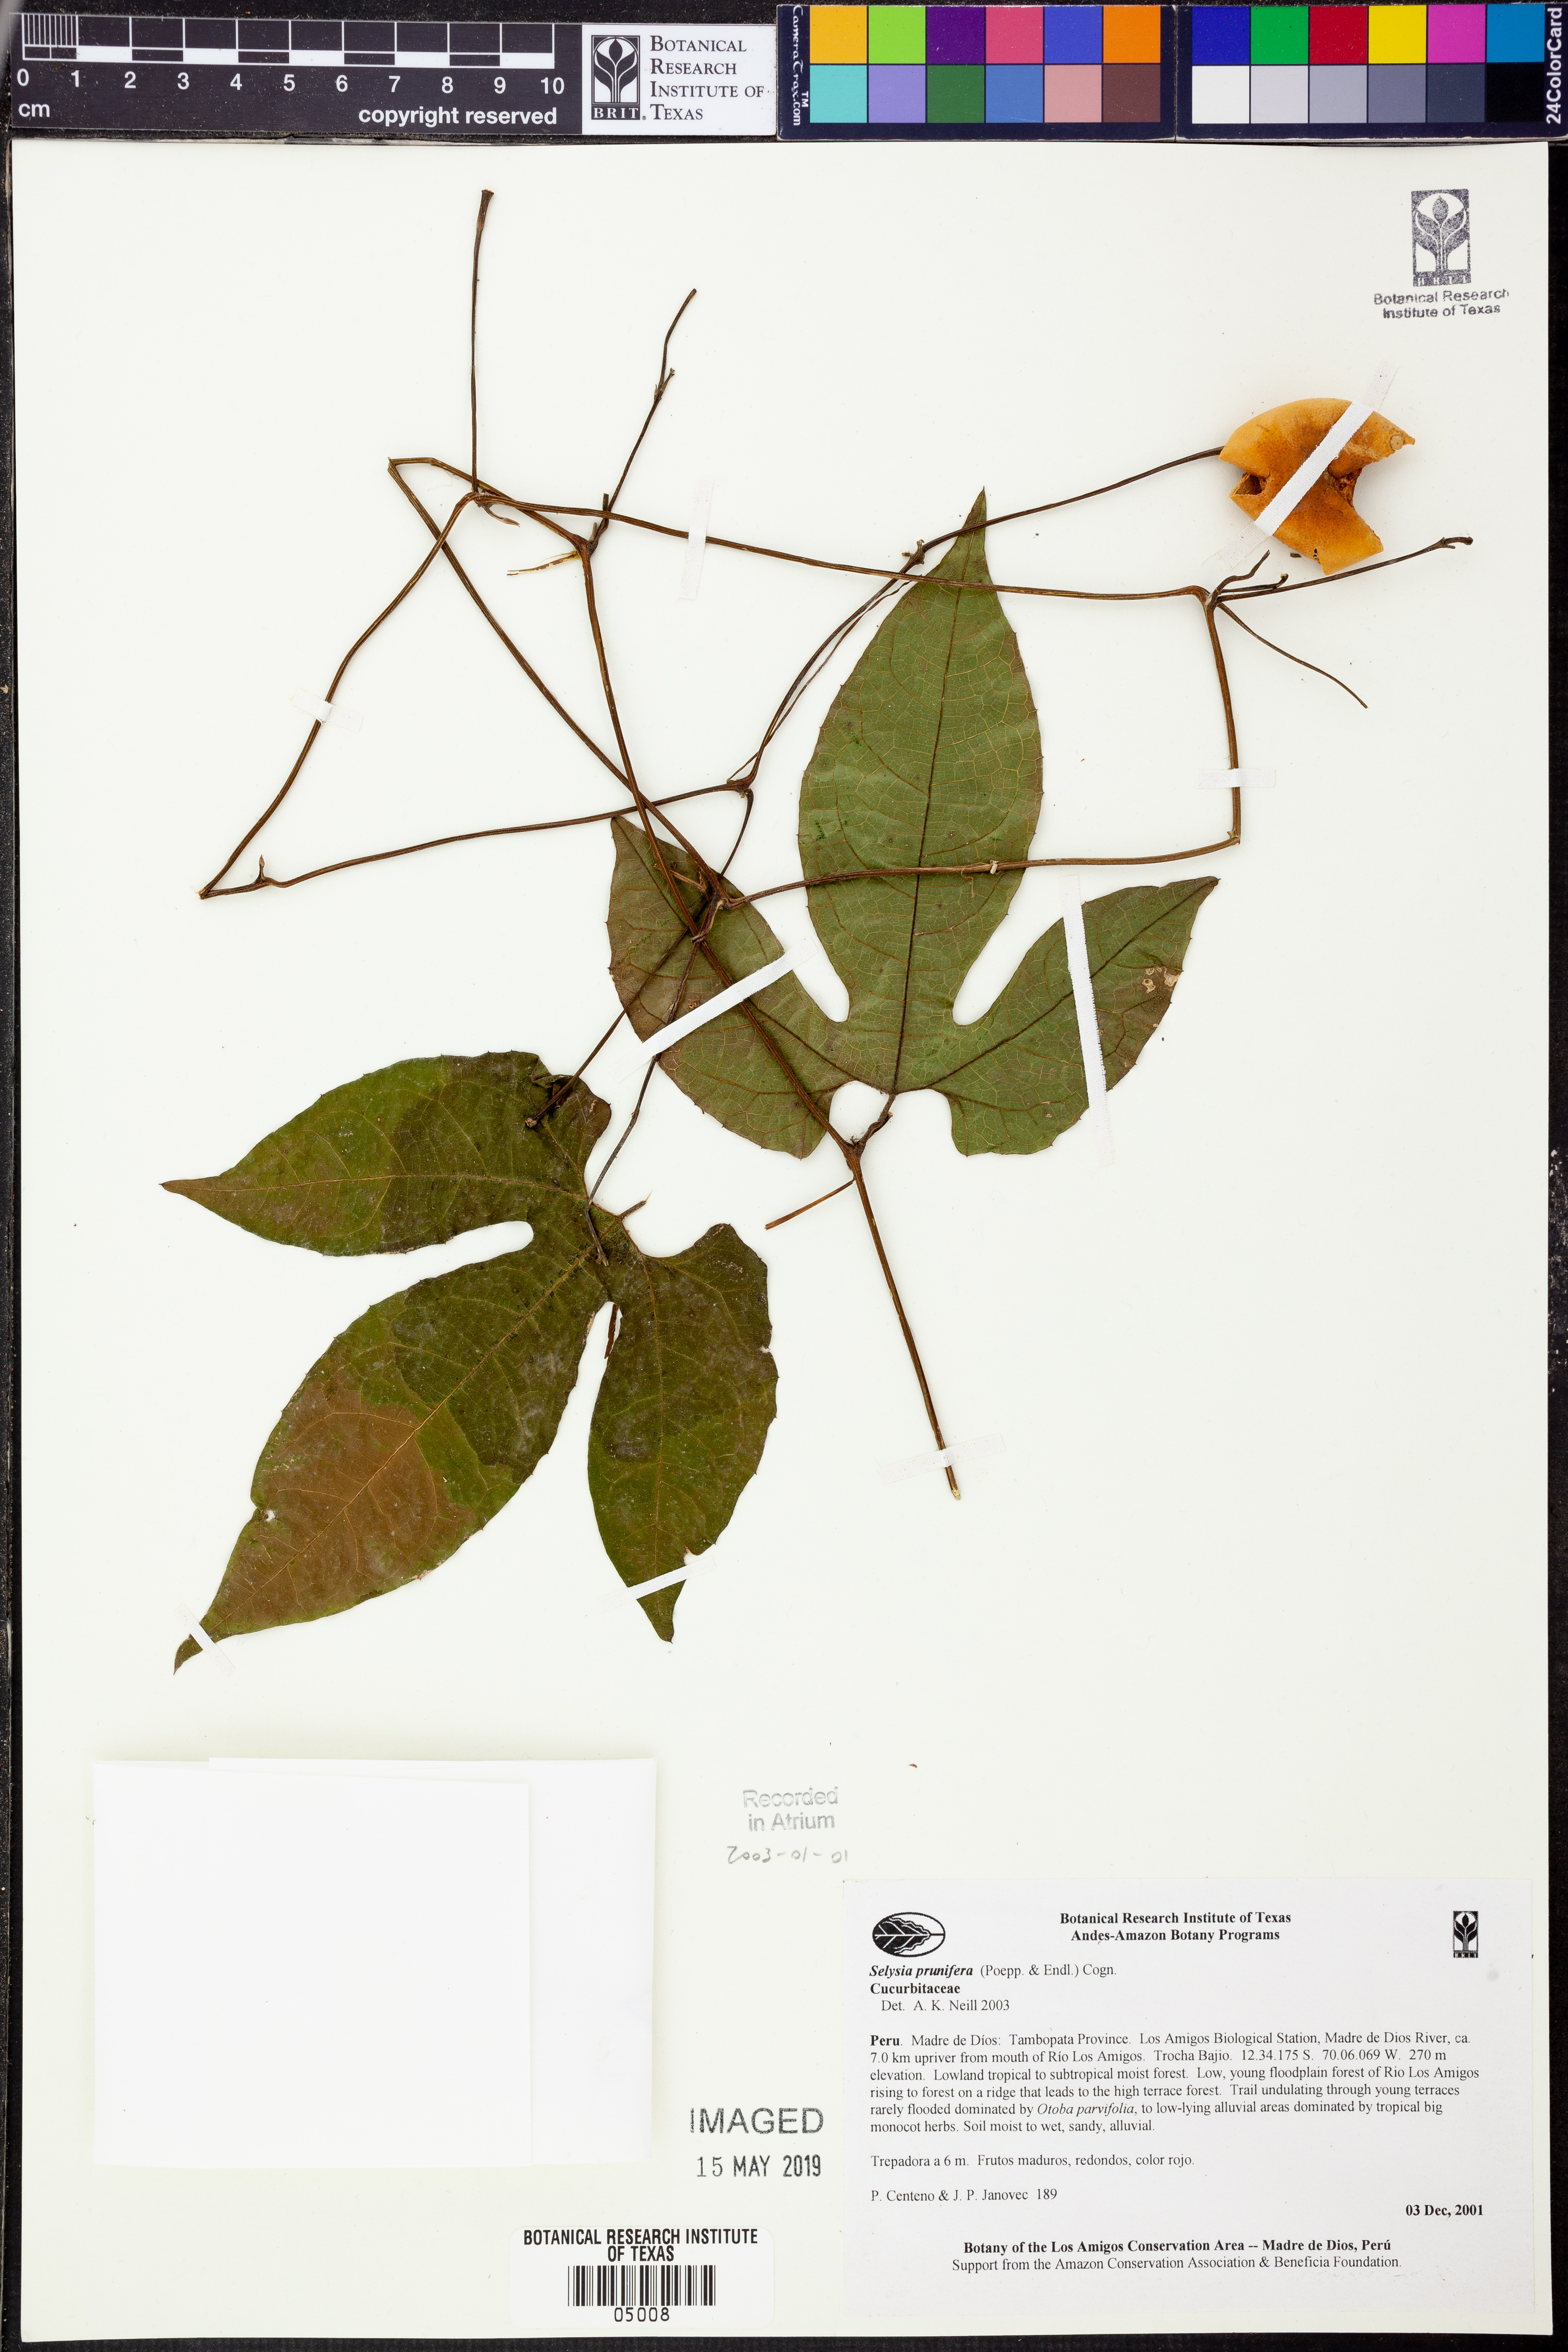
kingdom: Plantae
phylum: Tracheophyta
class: Magnoliopsida
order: Cucurbitales
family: Cucurbitaceae
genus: Selysia
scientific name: Selysia
